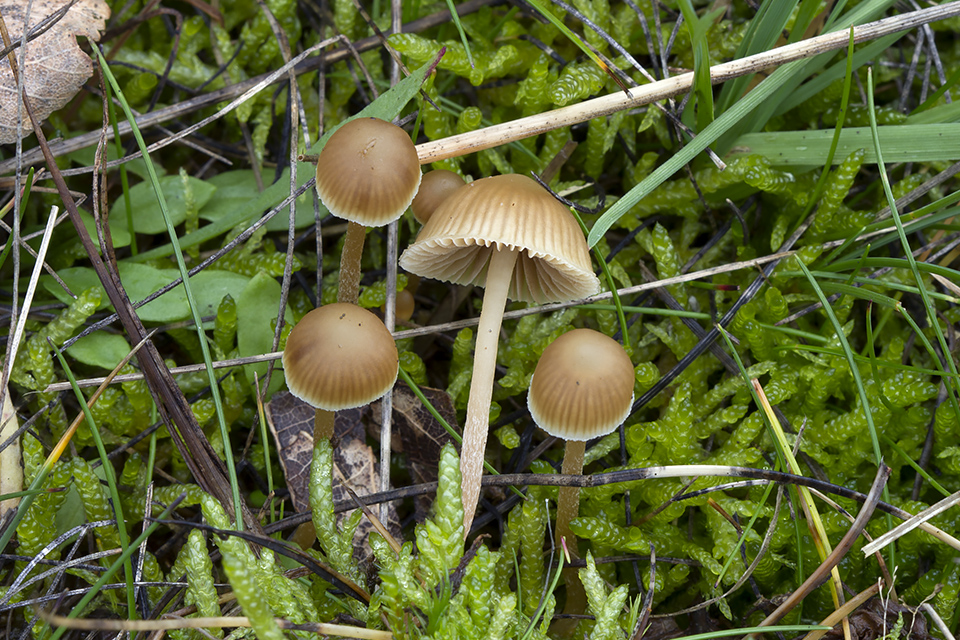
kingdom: Fungi
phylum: Basidiomycota
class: Agaricomycetes
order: Agaricales
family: Hymenogastraceae
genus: Galerina
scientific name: Galerina mniophila
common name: olivengul hjelmhat
